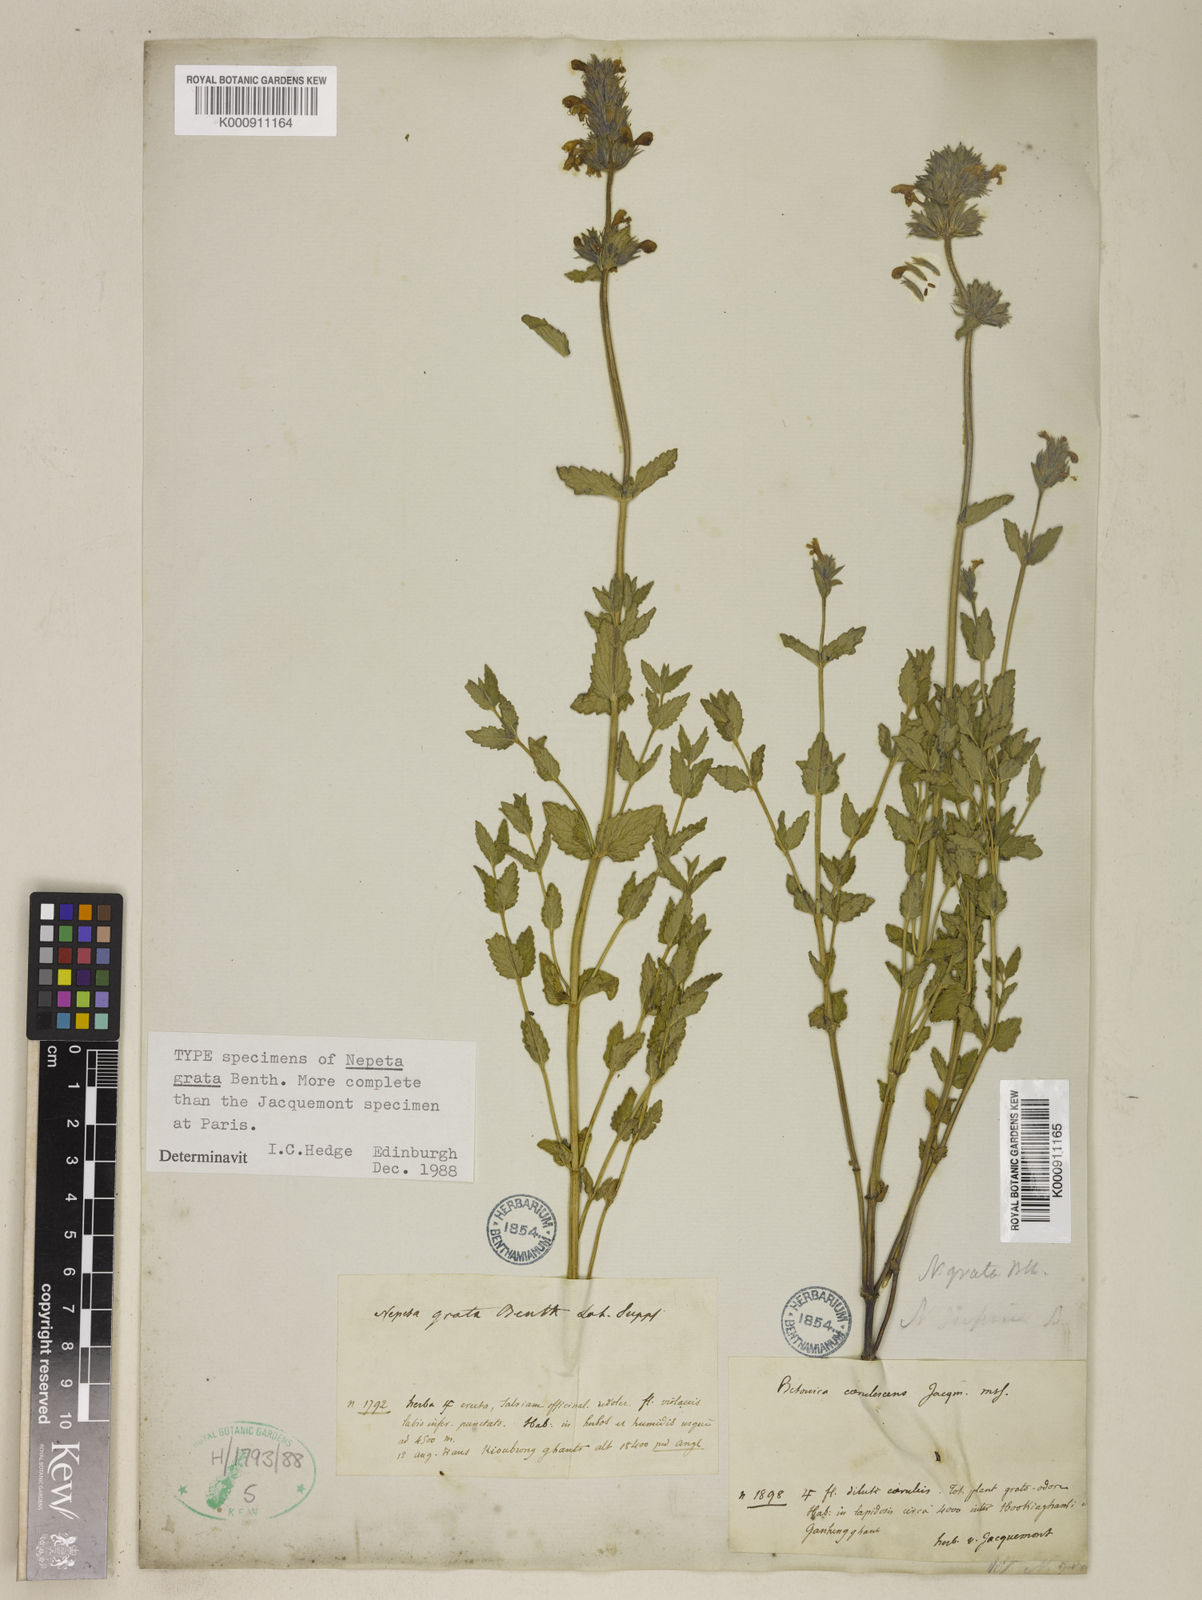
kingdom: Plantae
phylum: Tracheophyta
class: Magnoliopsida
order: Lamiales
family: Lamiaceae
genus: Nepeta
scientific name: Nepeta grata
